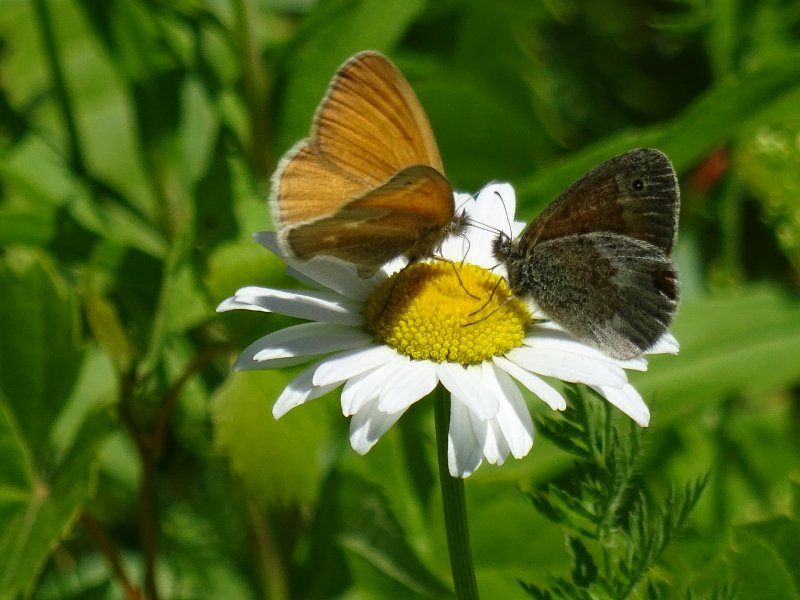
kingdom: Animalia
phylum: Arthropoda
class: Insecta
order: Lepidoptera
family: Nymphalidae
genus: Coenonympha
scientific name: Coenonympha tullia
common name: Large Heath
